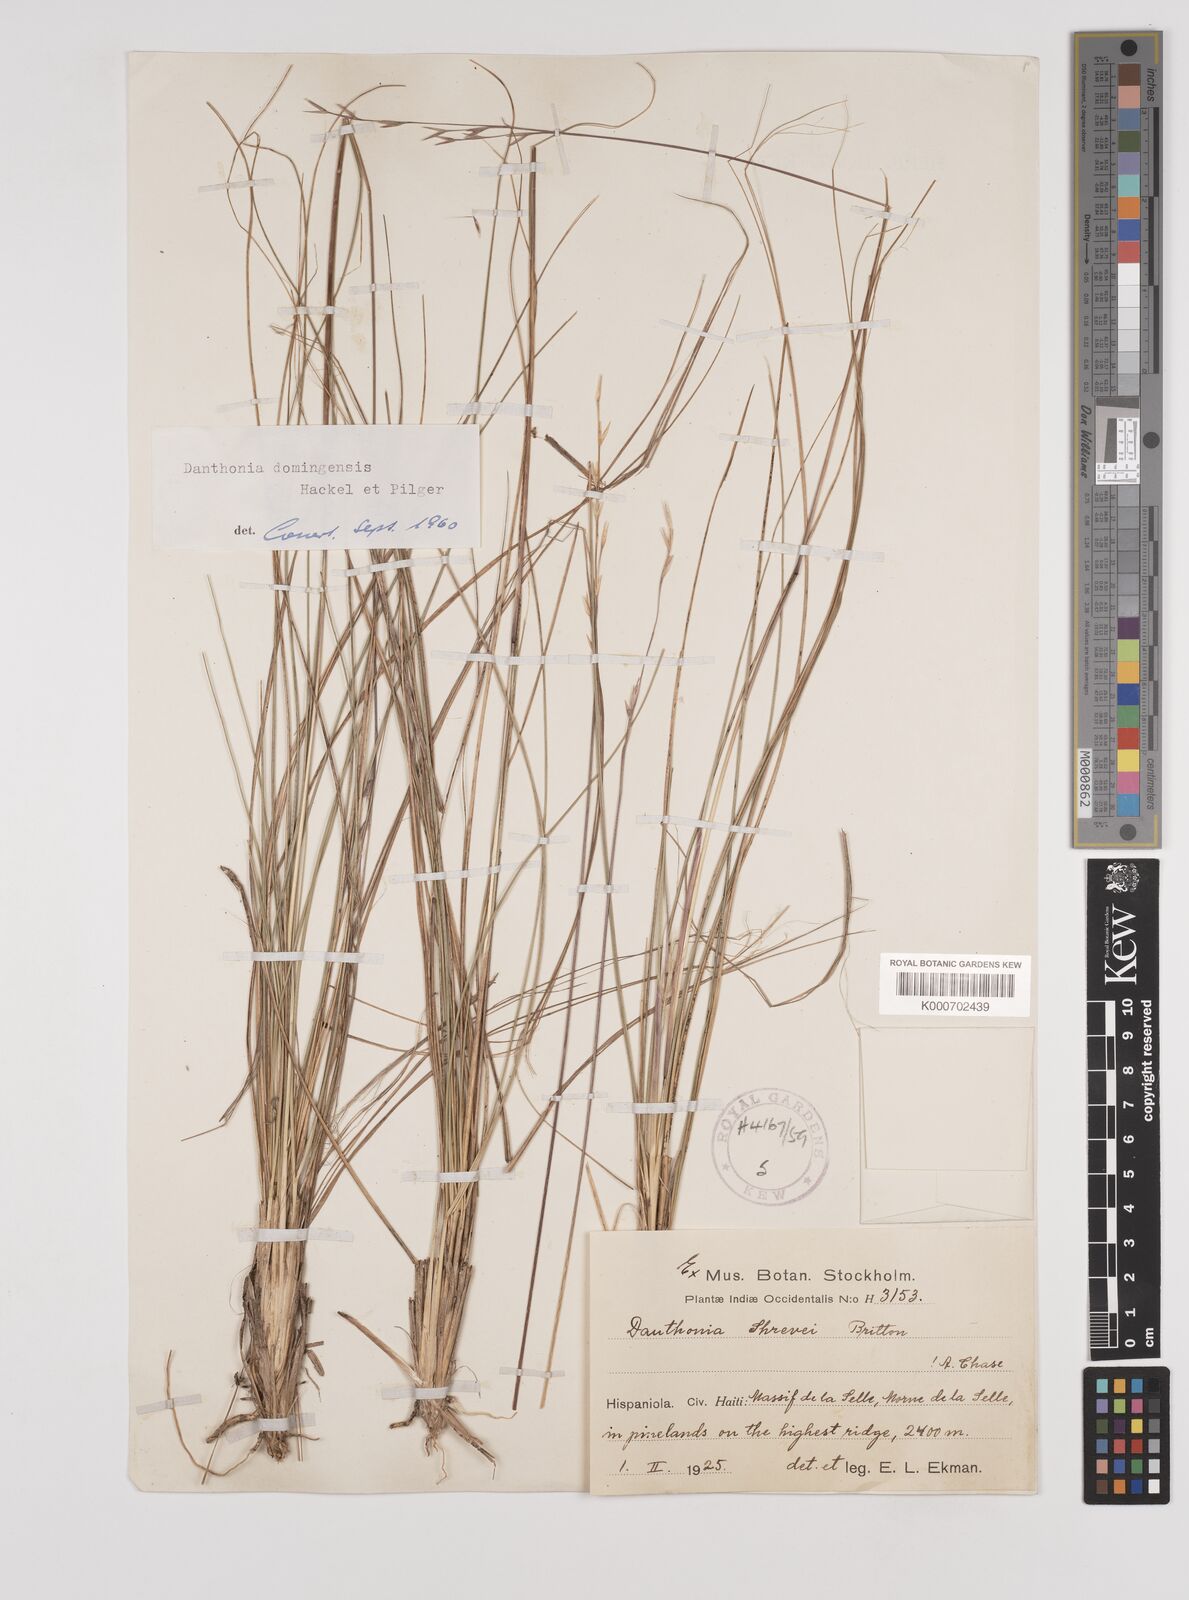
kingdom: Plantae
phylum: Tracheophyta
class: Liliopsida
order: Poales
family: Poaceae
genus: Danthonia
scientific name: Danthonia domingensis
